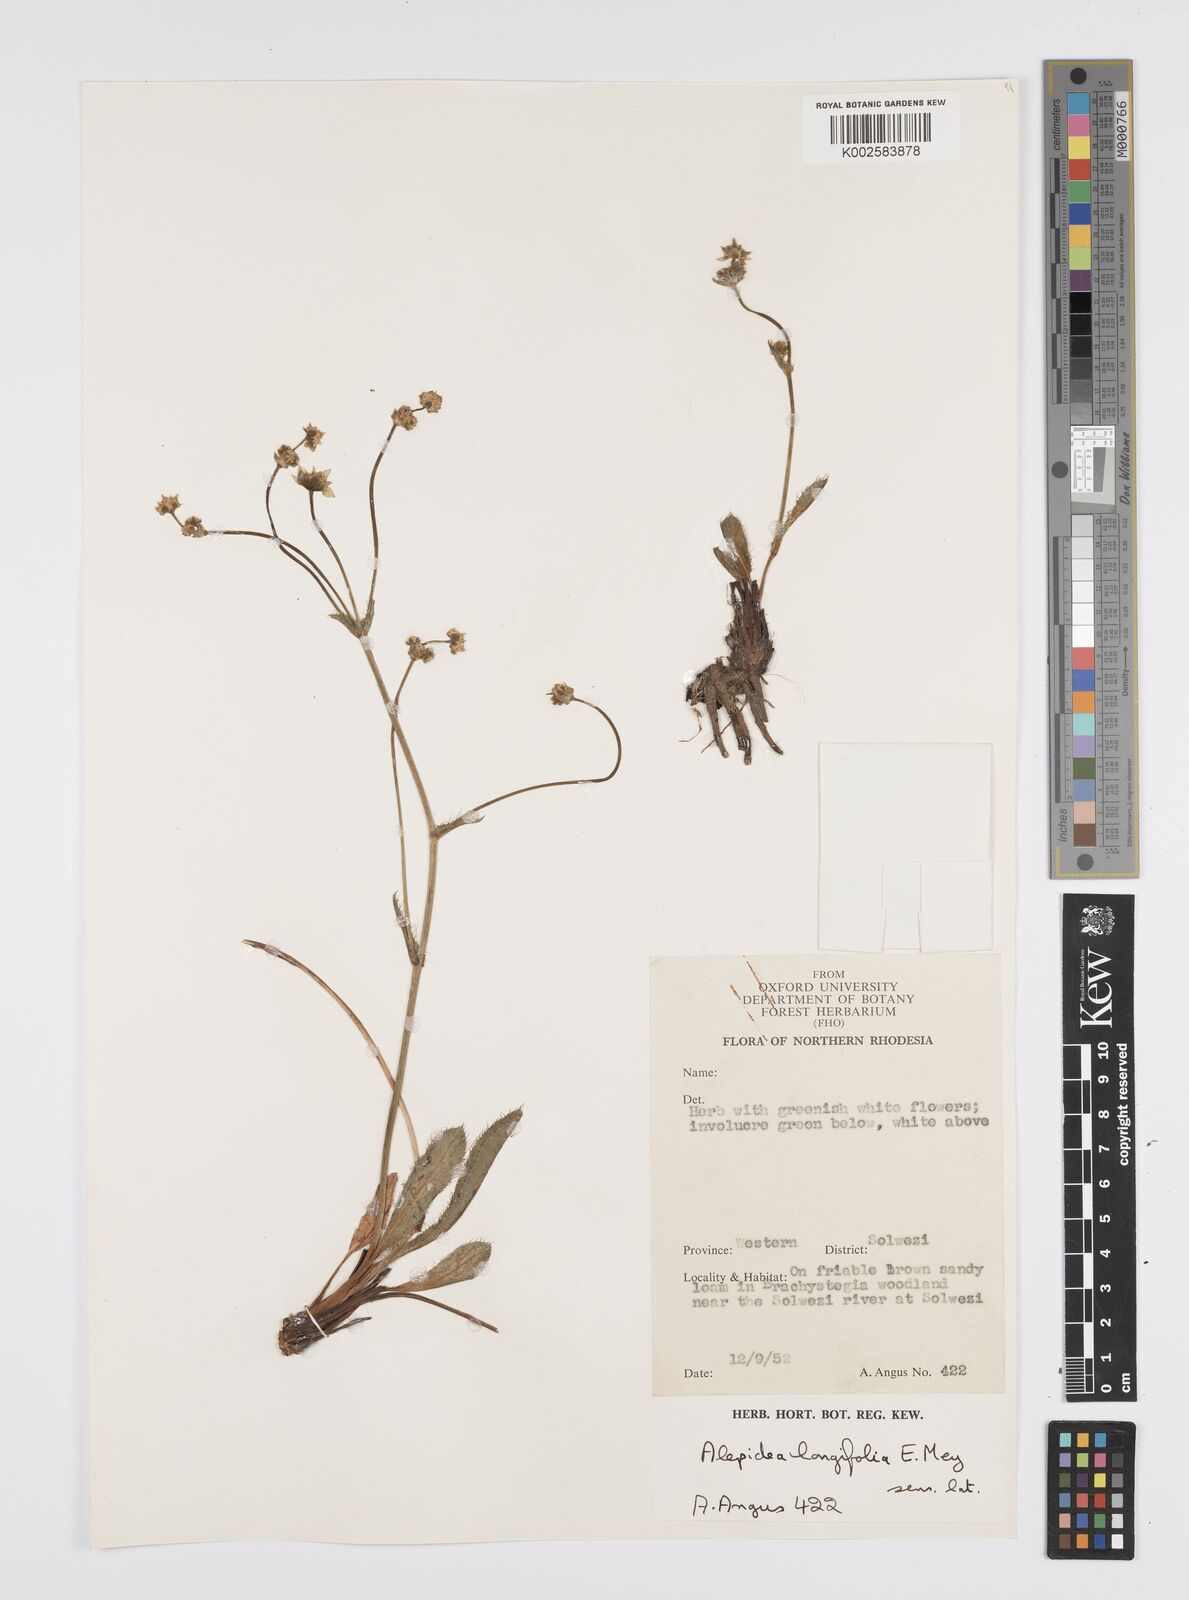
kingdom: Plantae
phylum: Tracheophyta
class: Magnoliopsida
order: Apiales
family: Apiaceae
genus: Alepidea
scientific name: Alepidea
